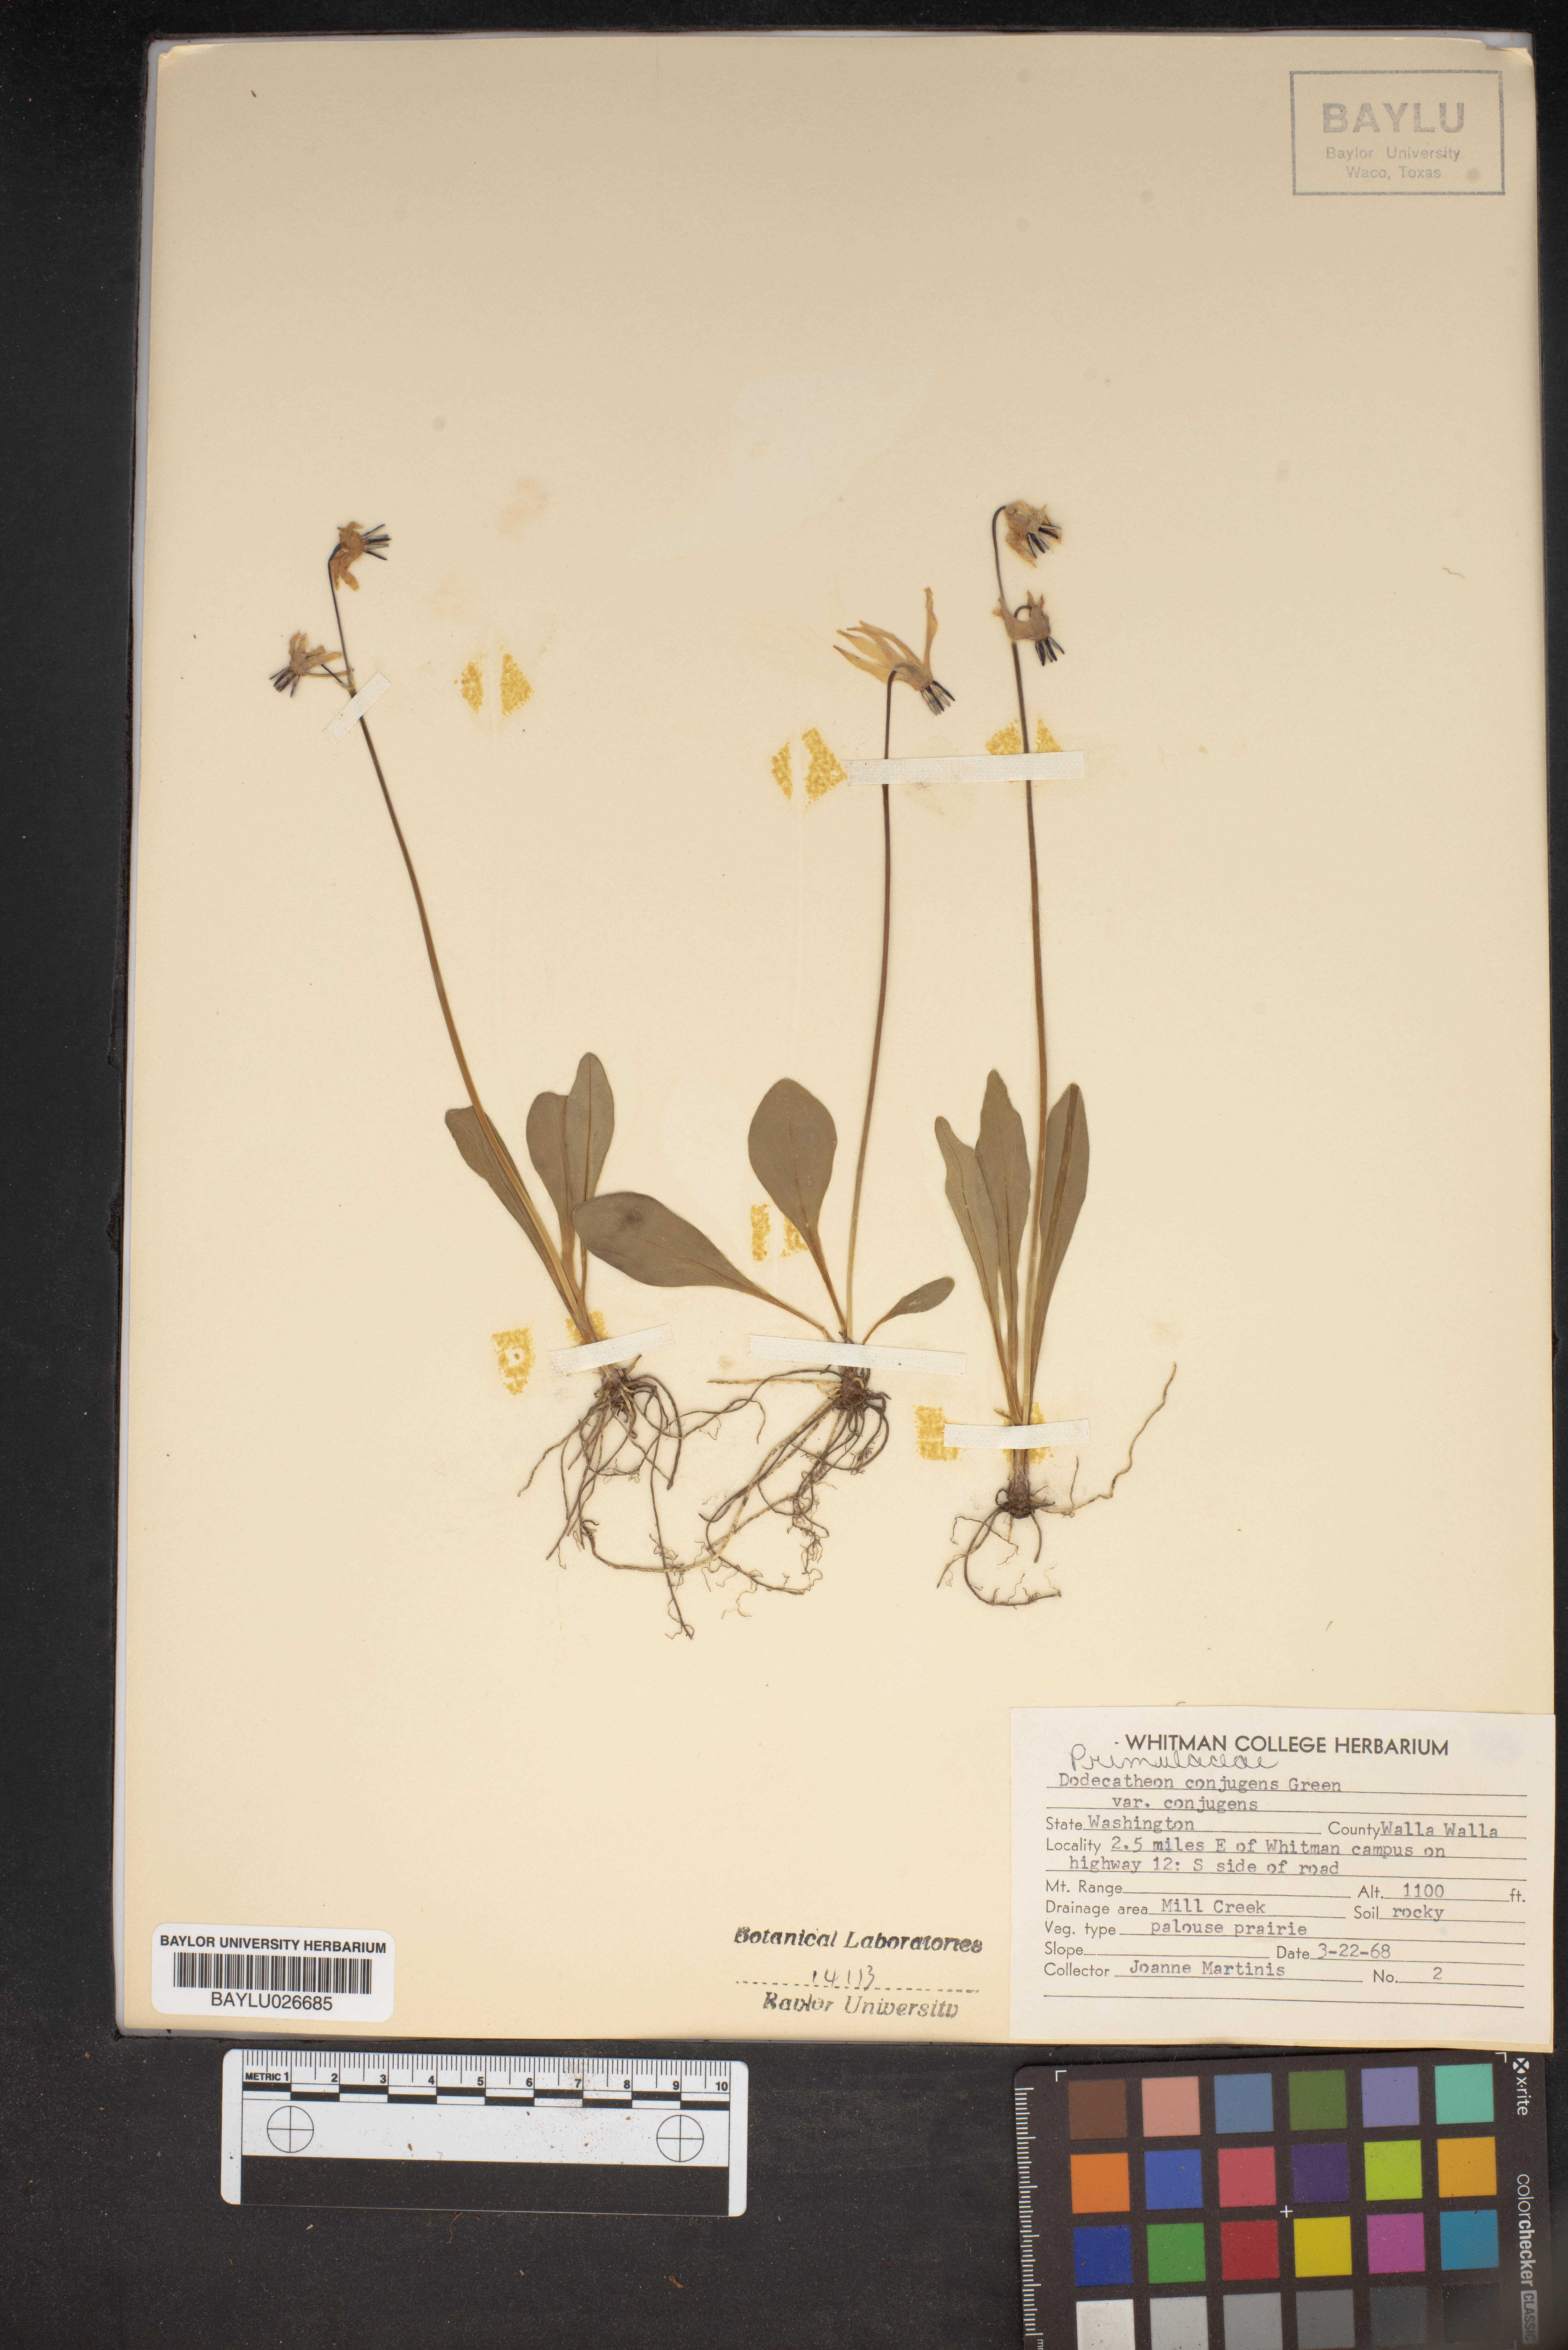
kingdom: Plantae
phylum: Tracheophyta
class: Magnoliopsida
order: Ericales
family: Primulaceae
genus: Dodecatheon
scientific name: Dodecatheon conjugens
